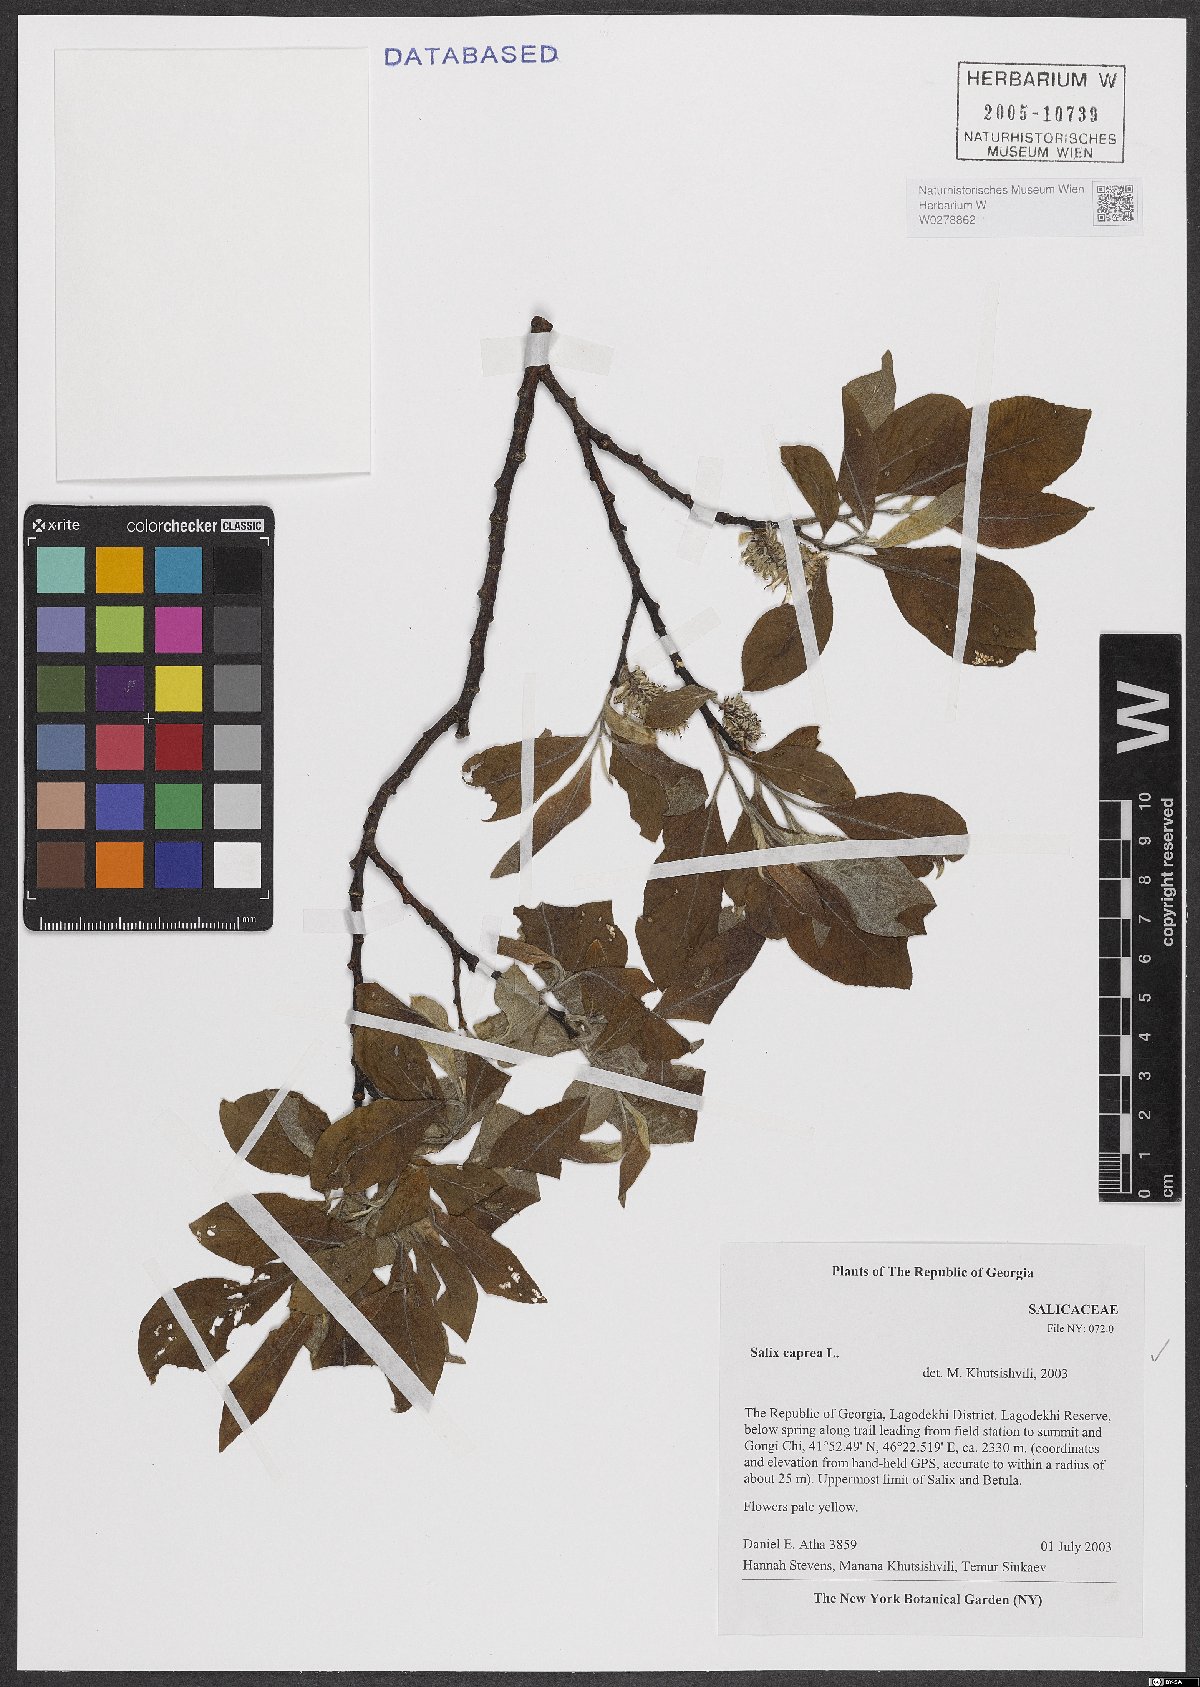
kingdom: Plantae
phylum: Tracheophyta
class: Magnoliopsida
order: Malpighiales
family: Salicaceae
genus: Salix
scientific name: Salix caprea
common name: Goat willow
